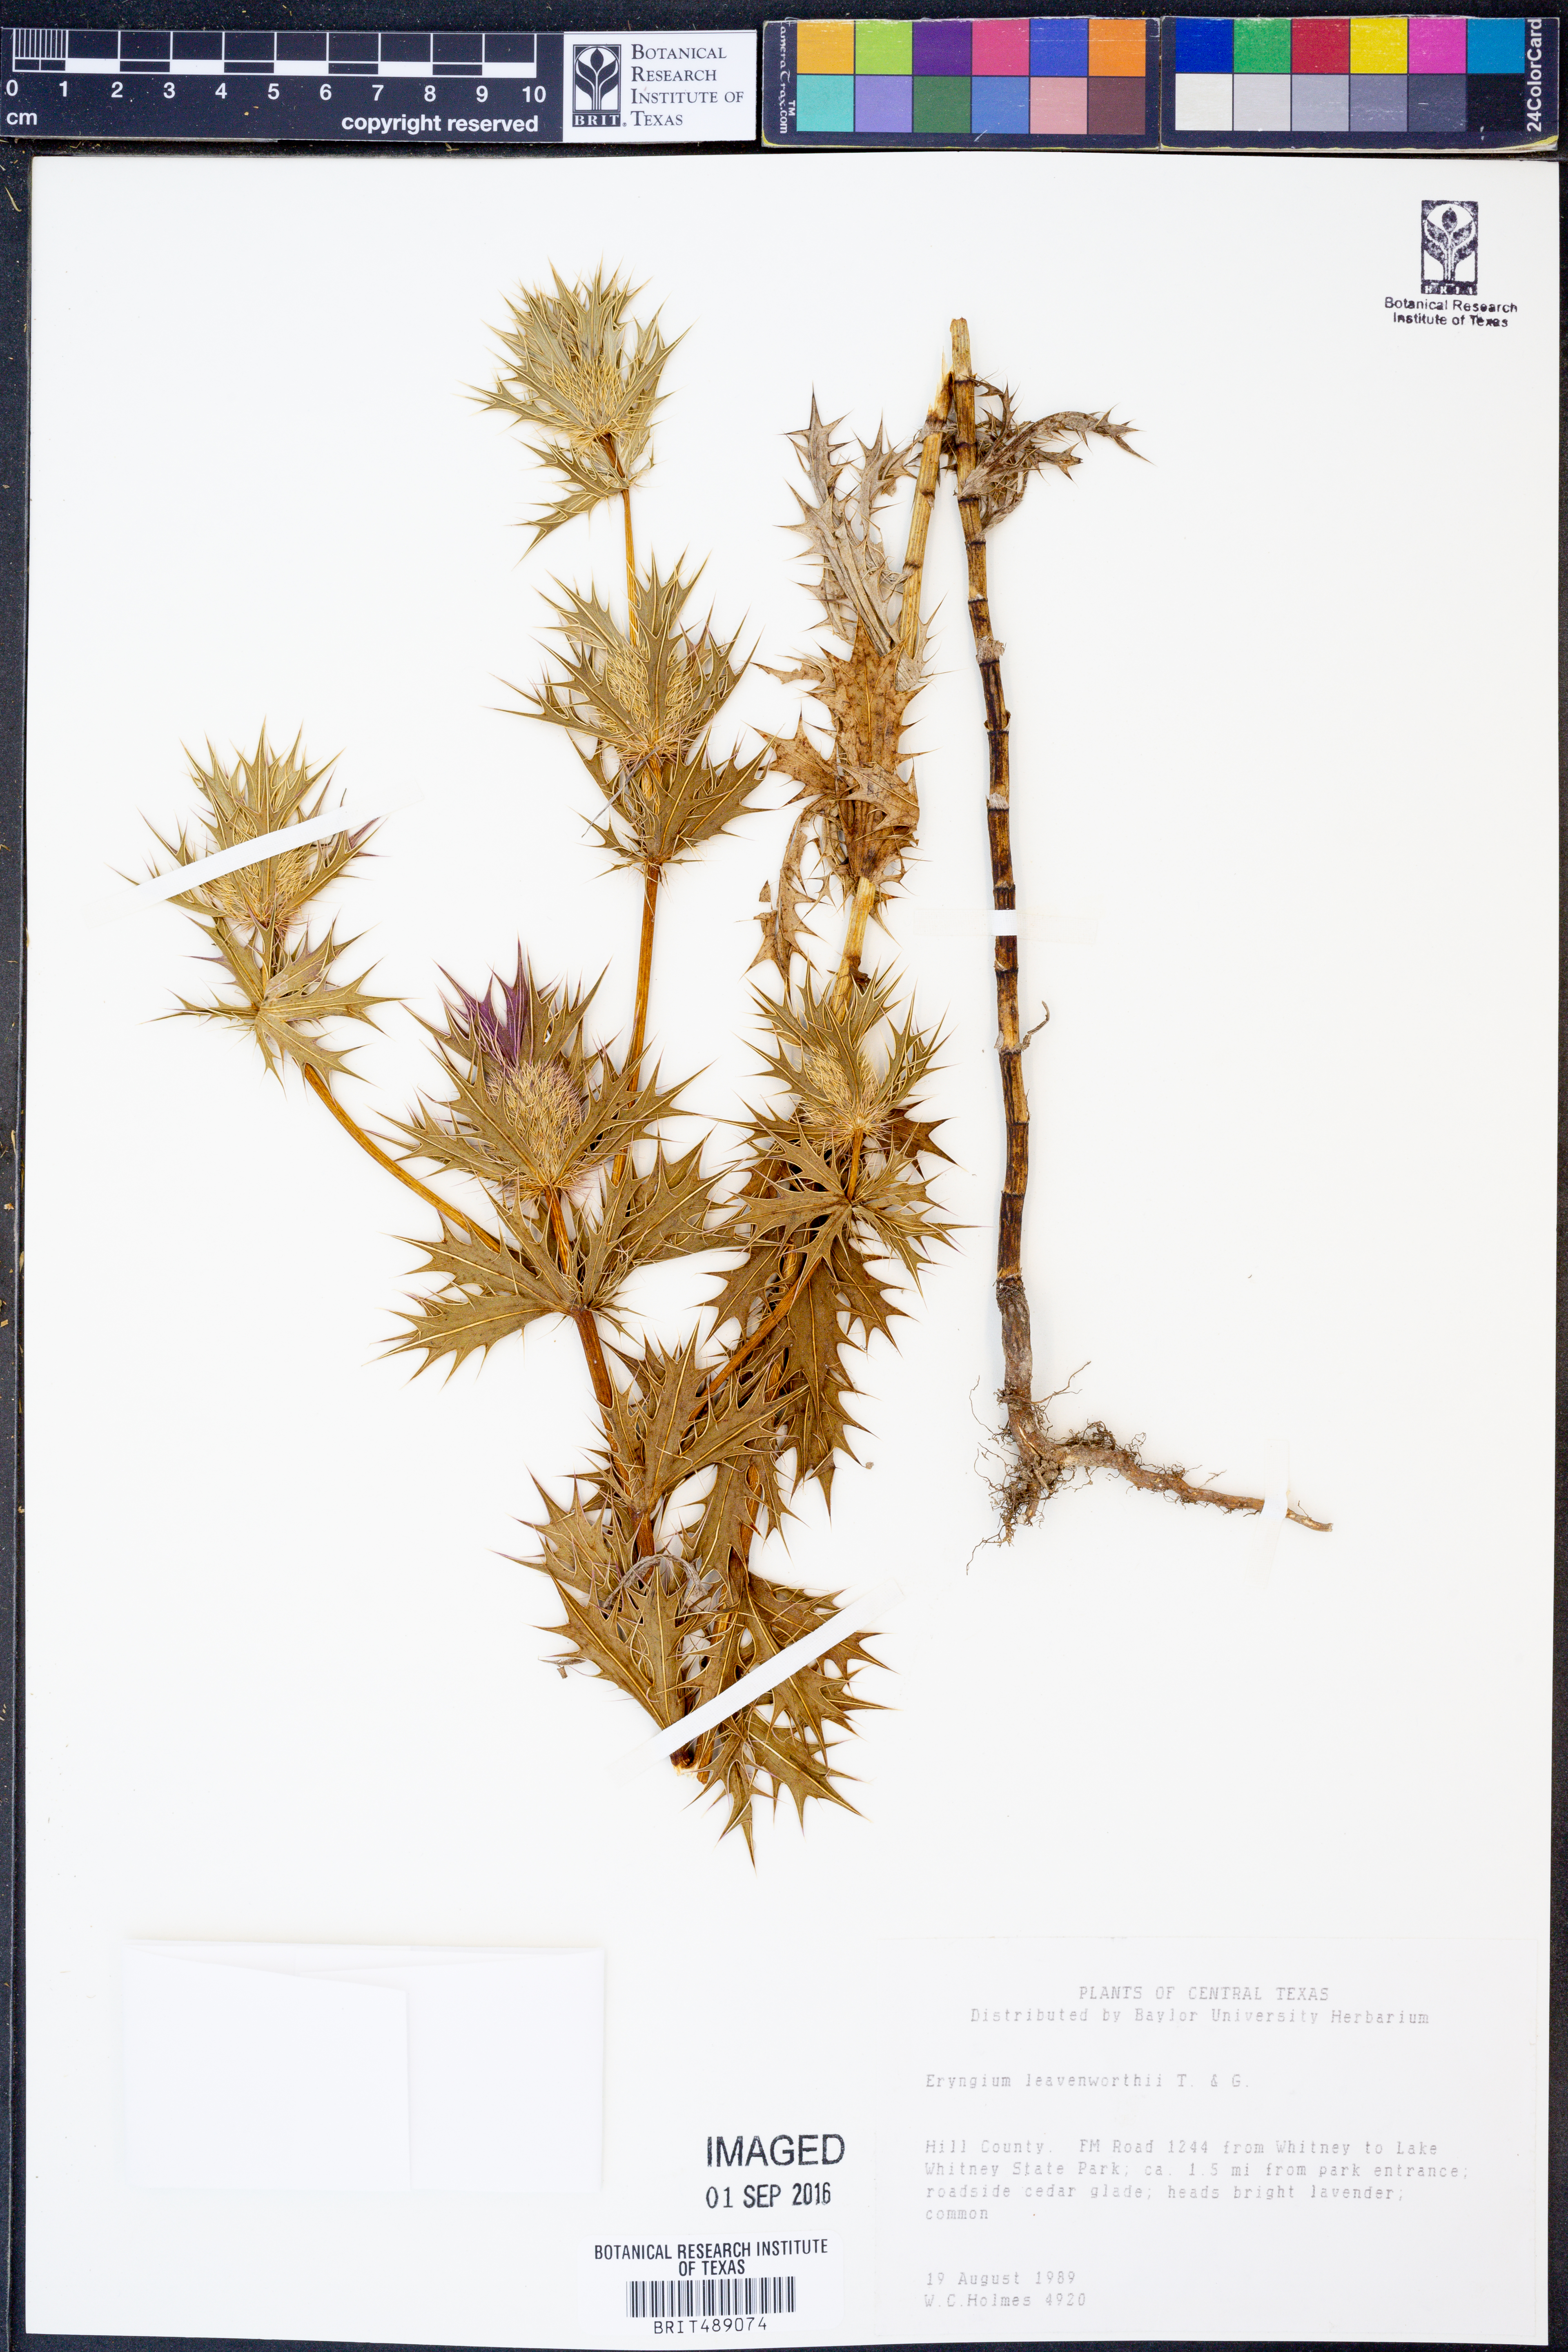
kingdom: Plantae
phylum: Tracheophyta
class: Magnoliopsida
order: Apiales
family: Apiaceae
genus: Eryngium
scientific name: Eryngium leavenworthii
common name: Leavenworth's eryngo
